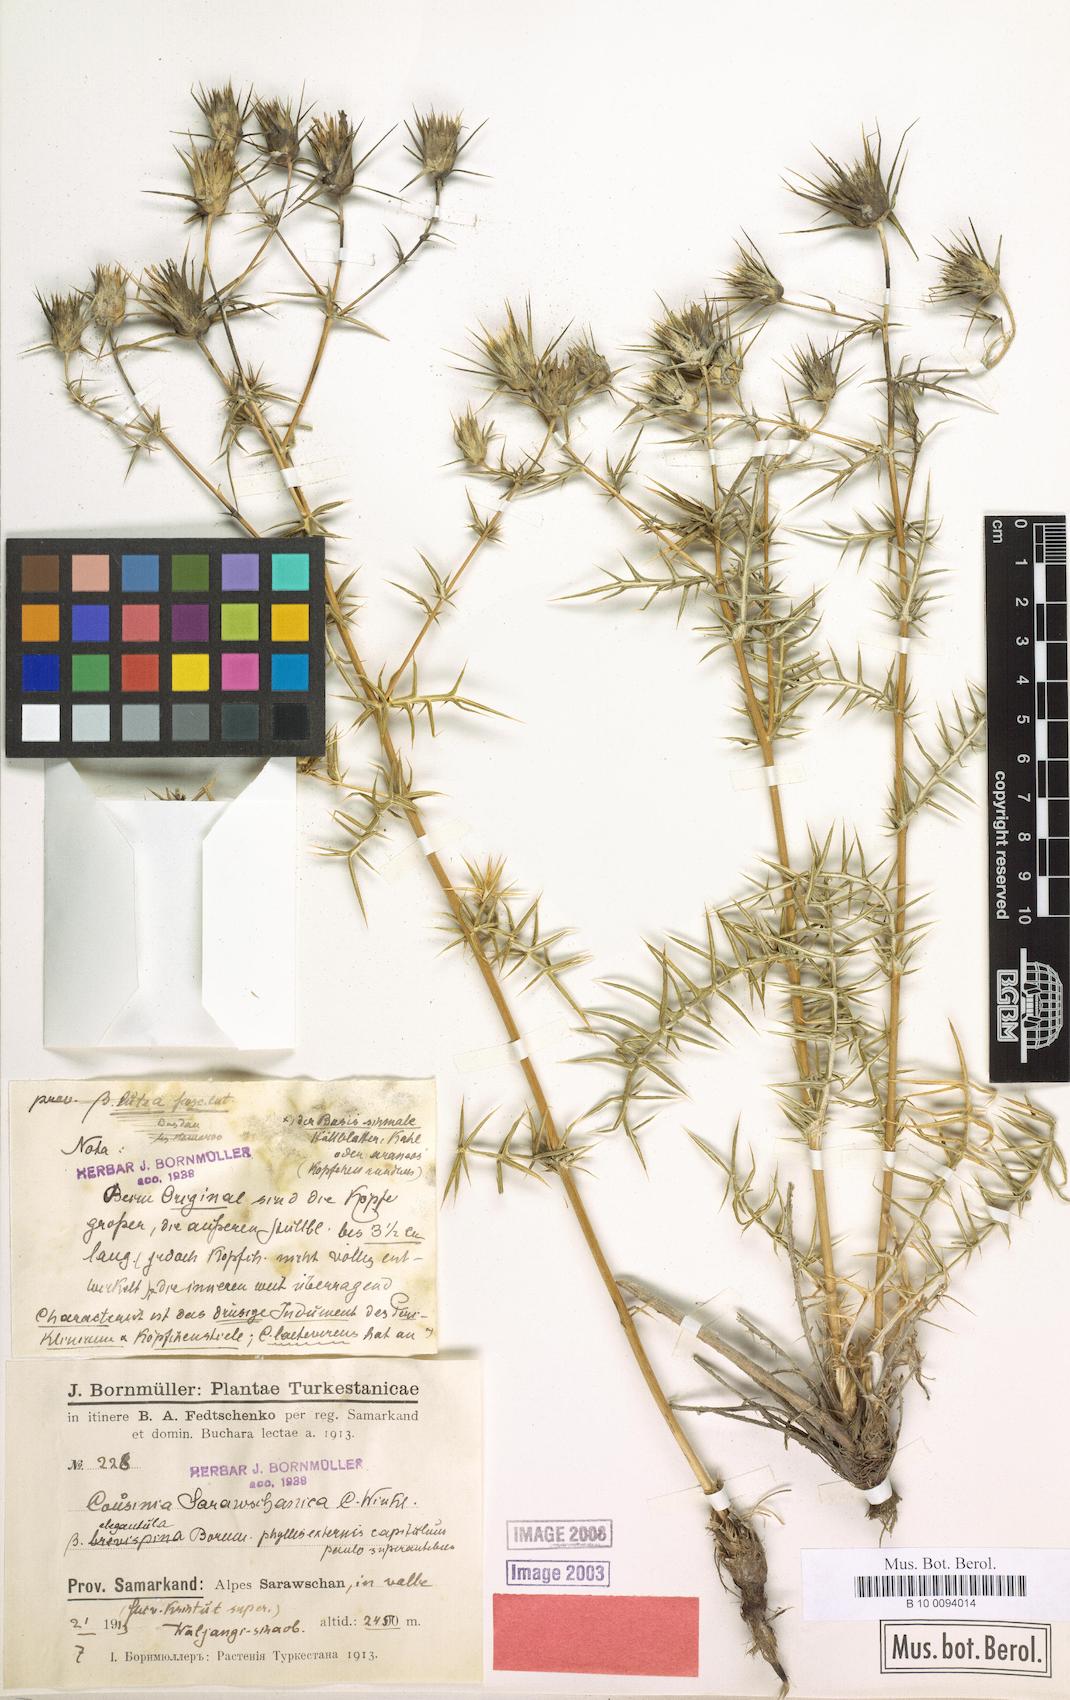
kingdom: Plantae
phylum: Tracheophyta
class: Magnoliopsida
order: Asterales
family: Asteraceae
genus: Cousinia
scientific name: Cousinia sarawschanica
